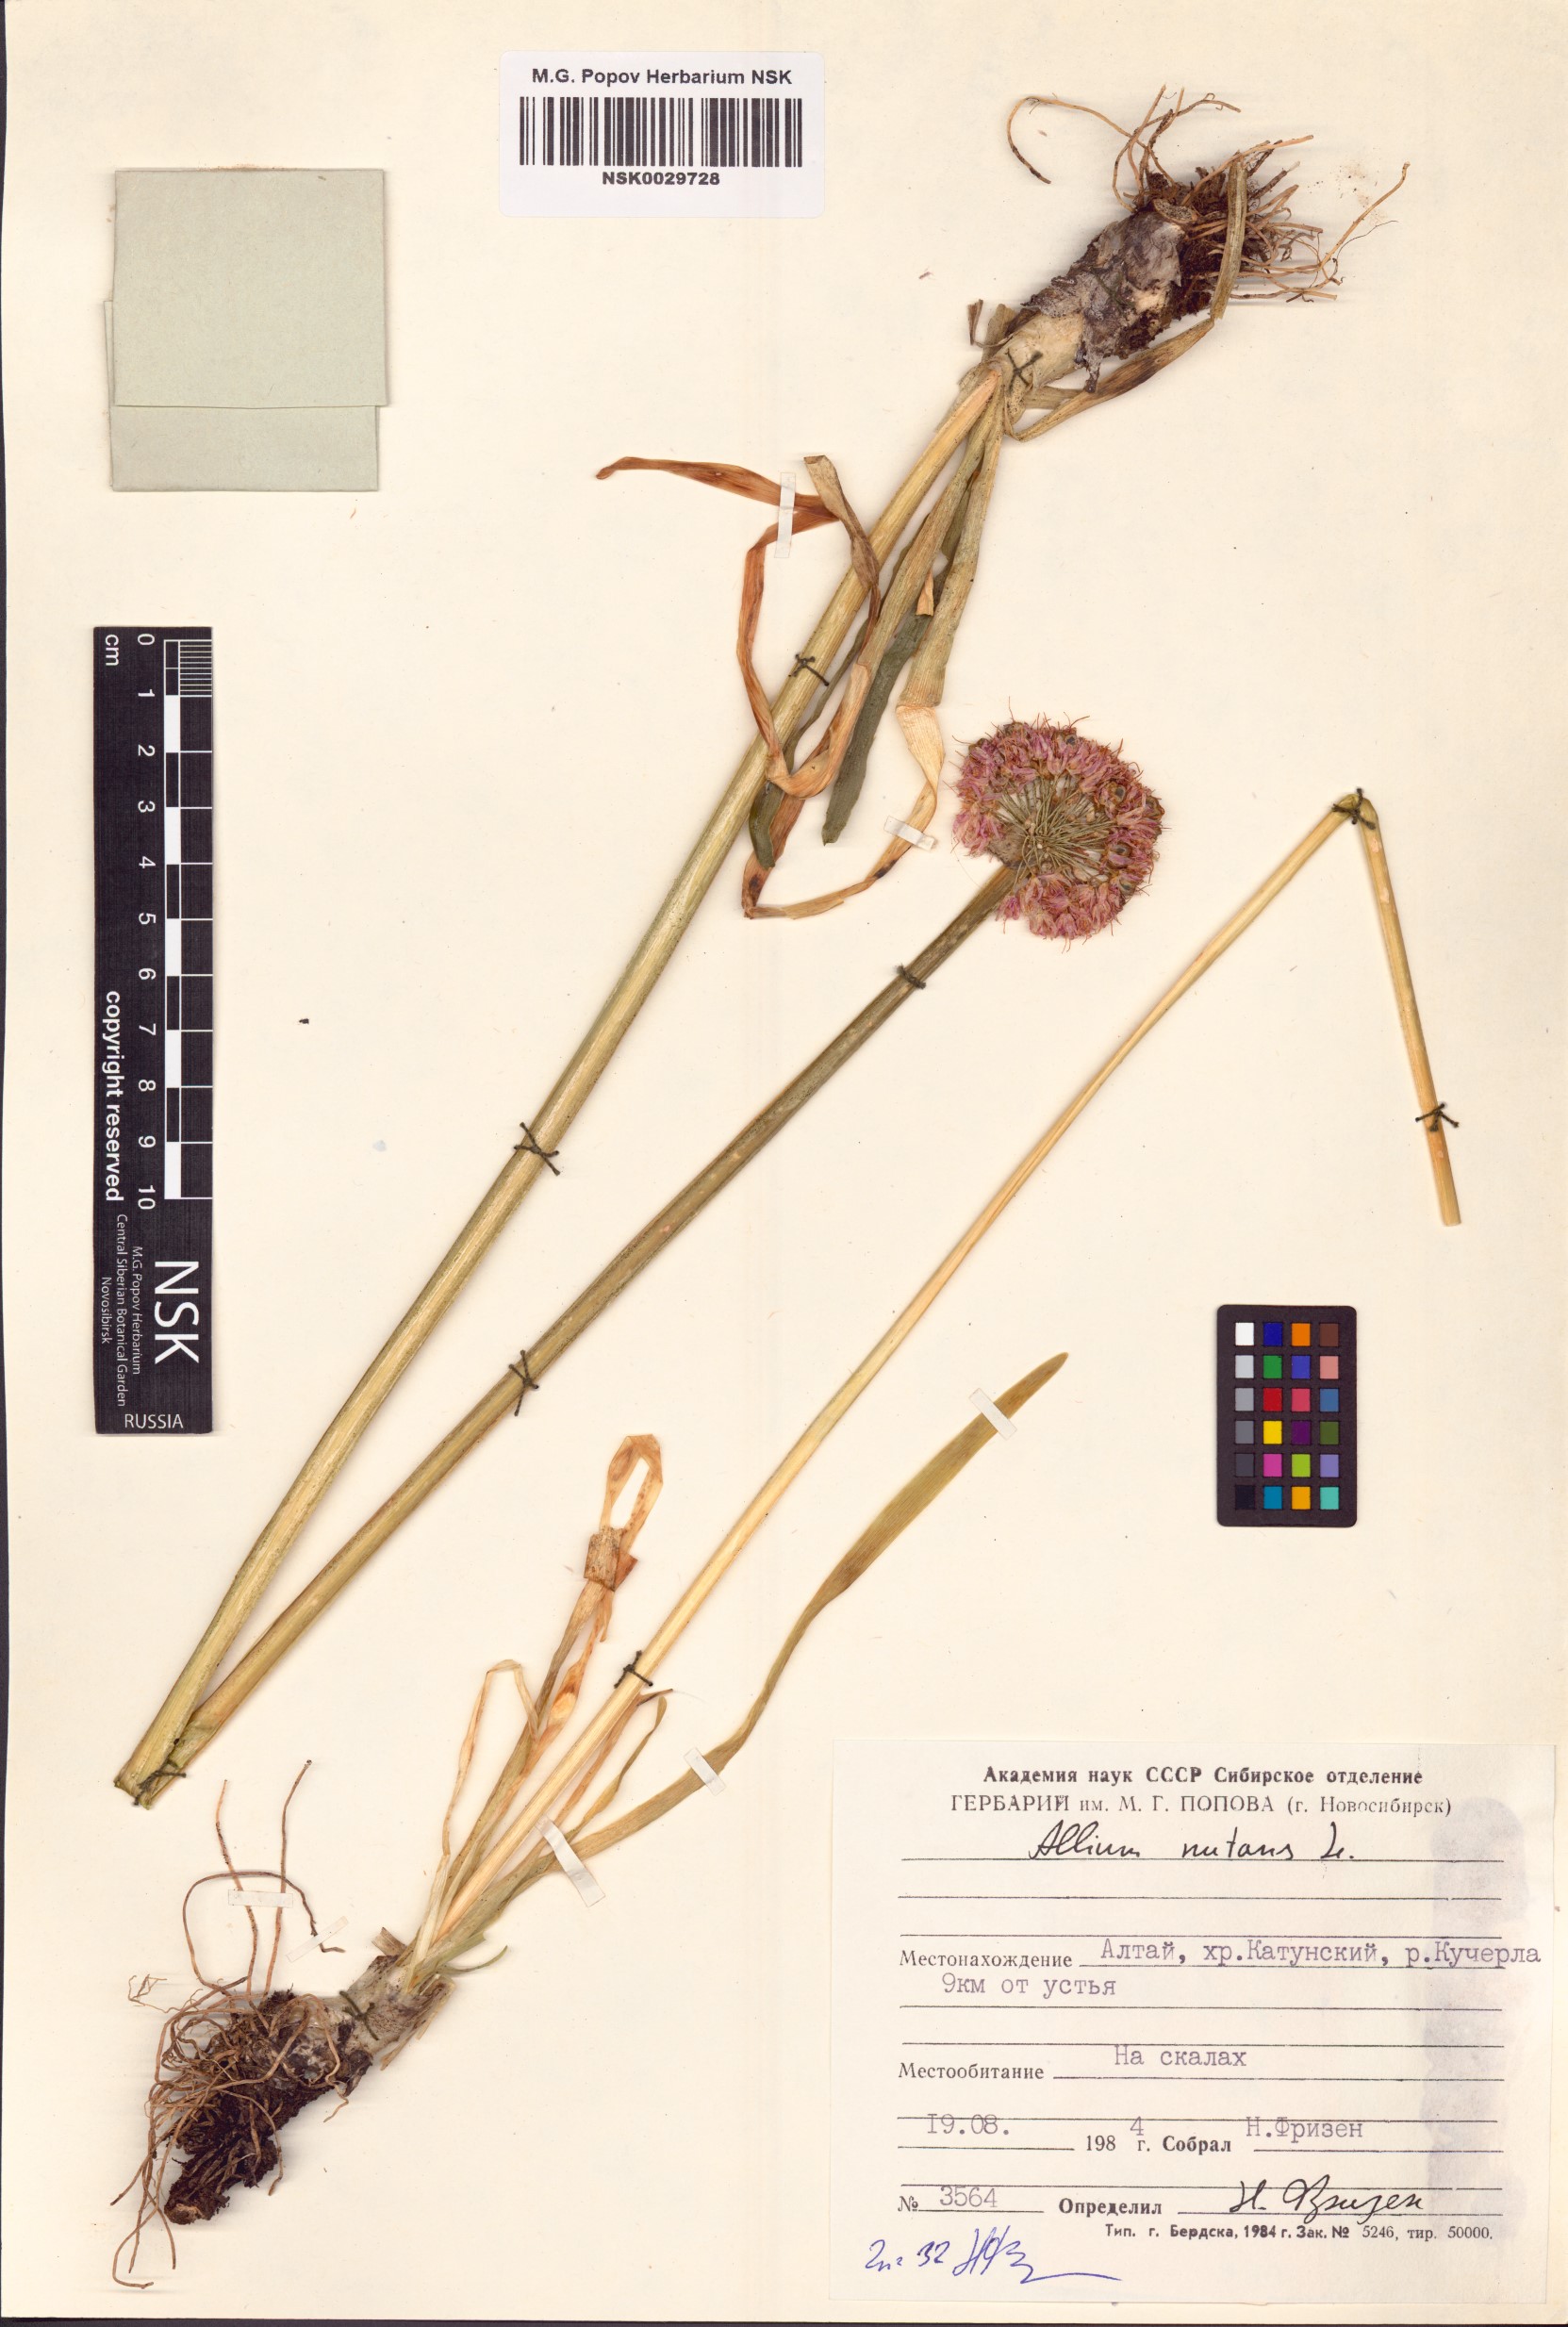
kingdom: Plantae
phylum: Tracheophyta
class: Liliopsida
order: Asparagales
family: Amaryllidaceae
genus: Allium
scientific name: Allium nutans
